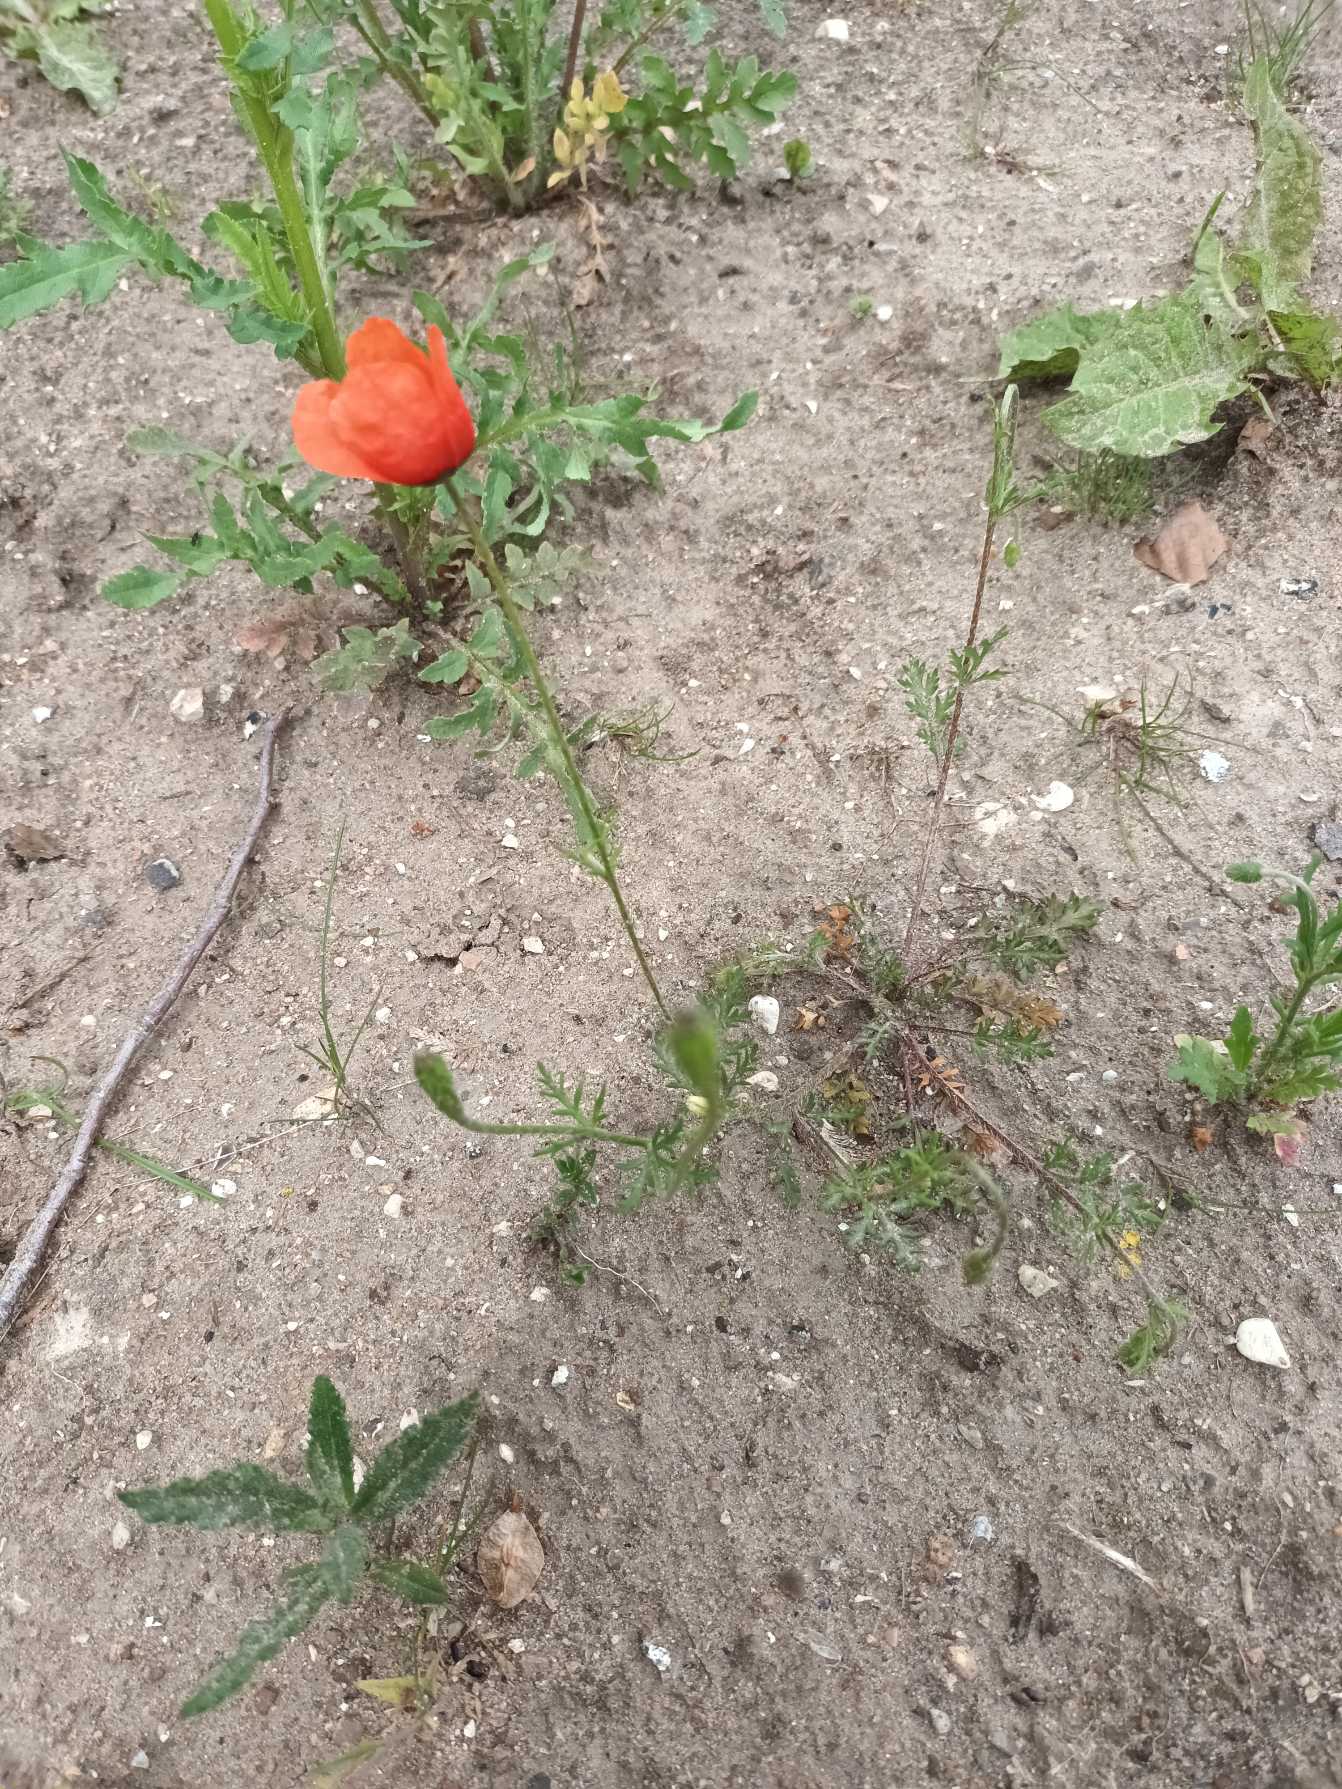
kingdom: Plantae
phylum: Tracheophyta
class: Magnoliopsida
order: Ranunculales
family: Papaveraceae
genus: Papaver
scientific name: Papaver dubium
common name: Gærde-valmue
